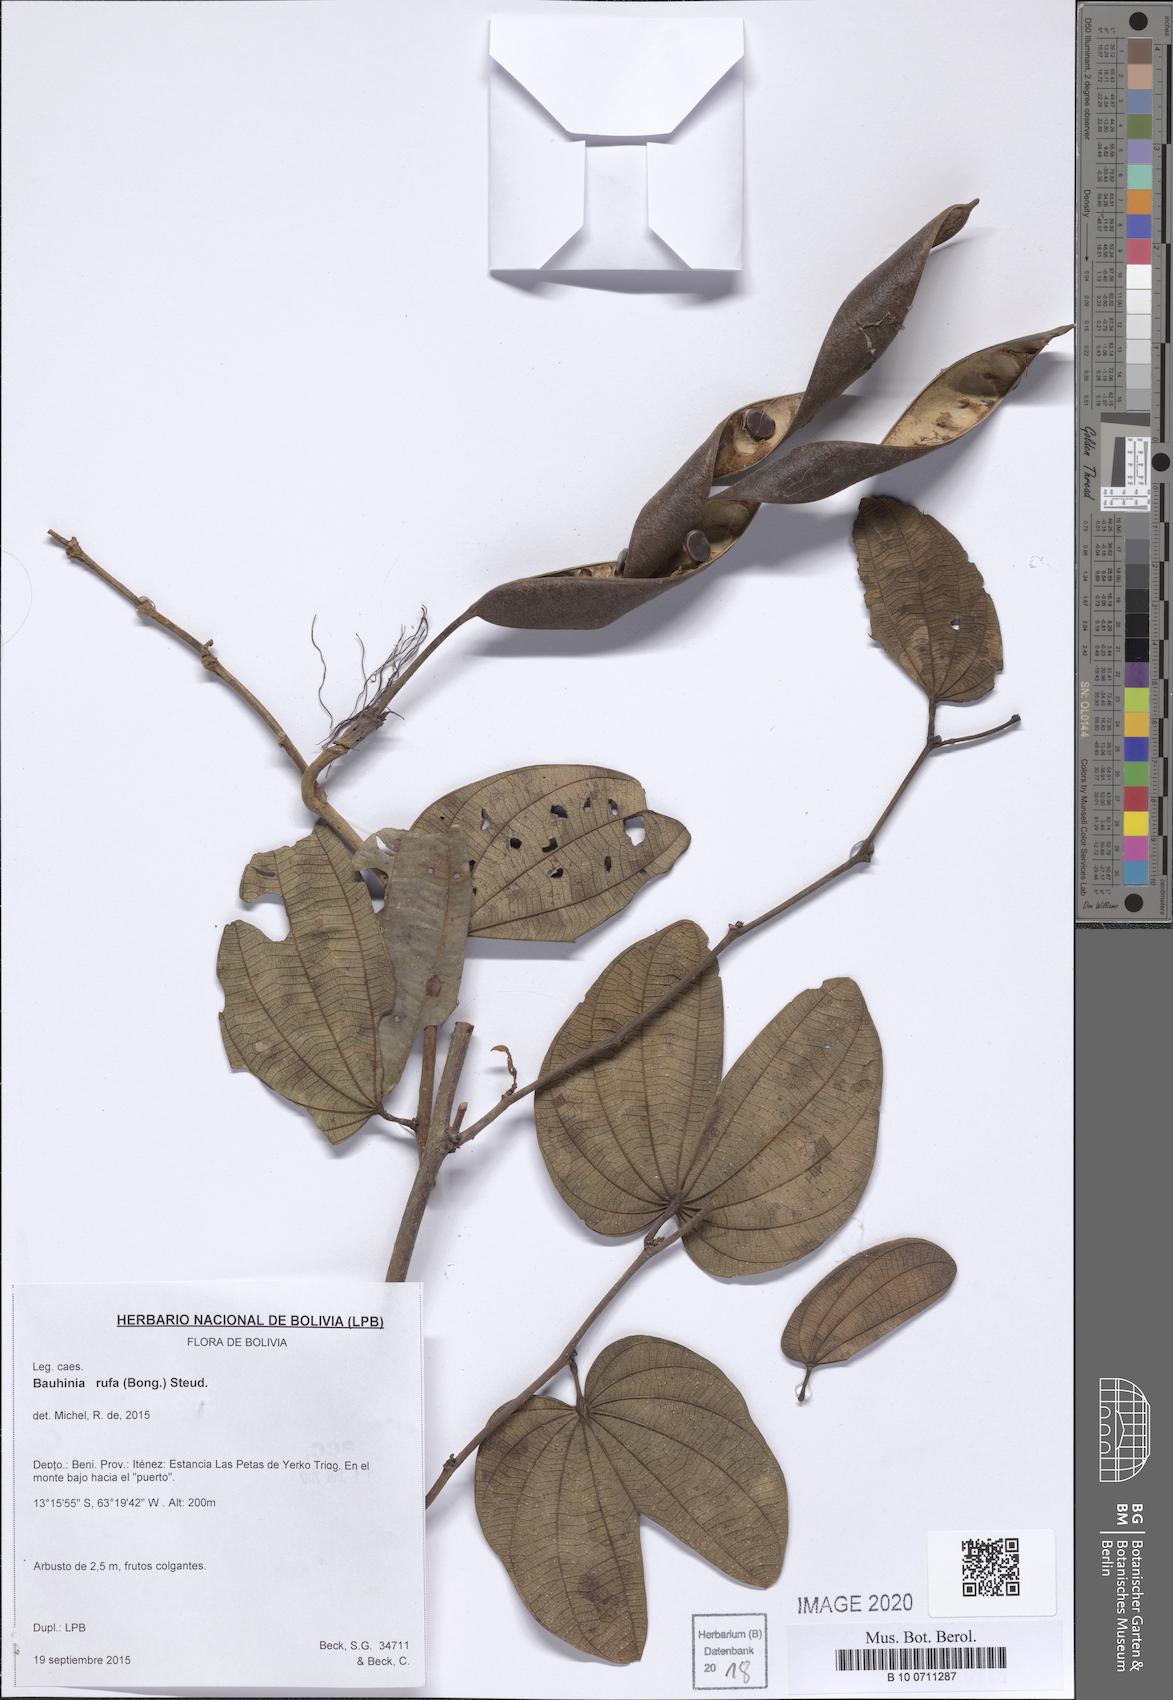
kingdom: Plantae
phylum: Tracheophyta
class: Magnoliopsida
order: Fabales
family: Fabaceae
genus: Bauhinia
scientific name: Bauhinia rufa
